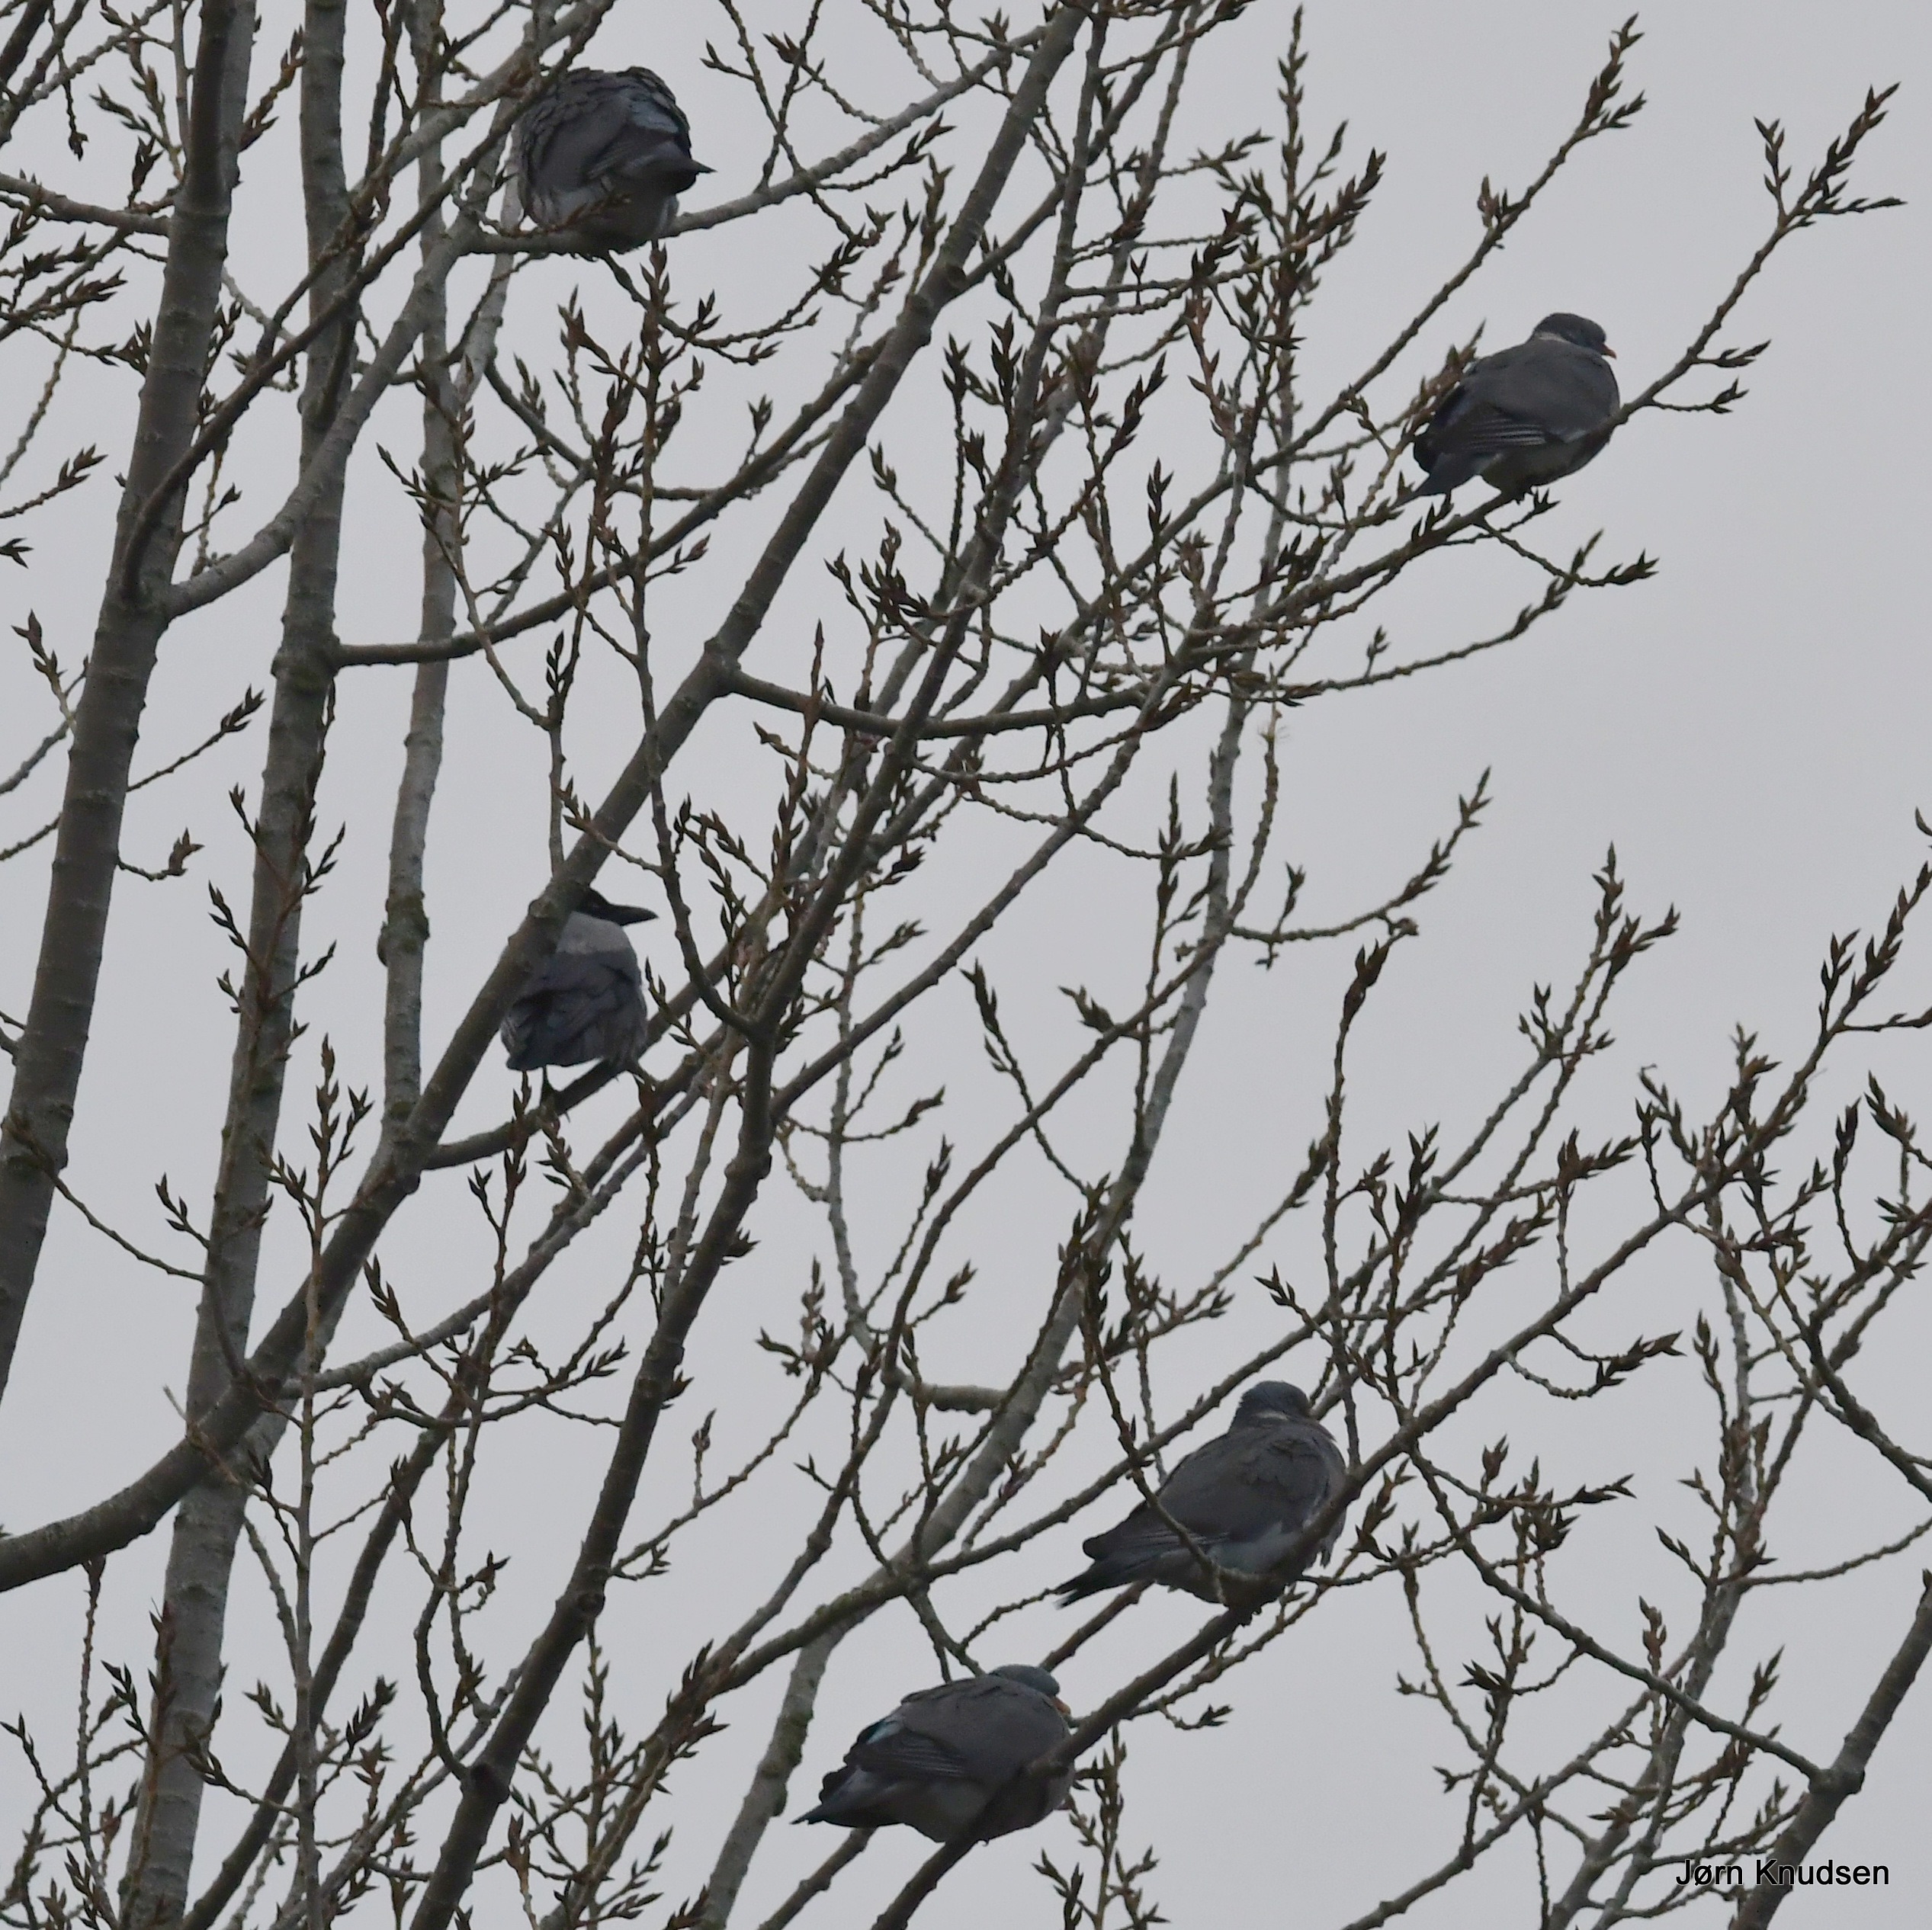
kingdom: Animalia
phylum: Chordata
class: Aves
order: Columbiformes
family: Columbidae
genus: Columba
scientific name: Columba palumbus
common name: Ringdue
